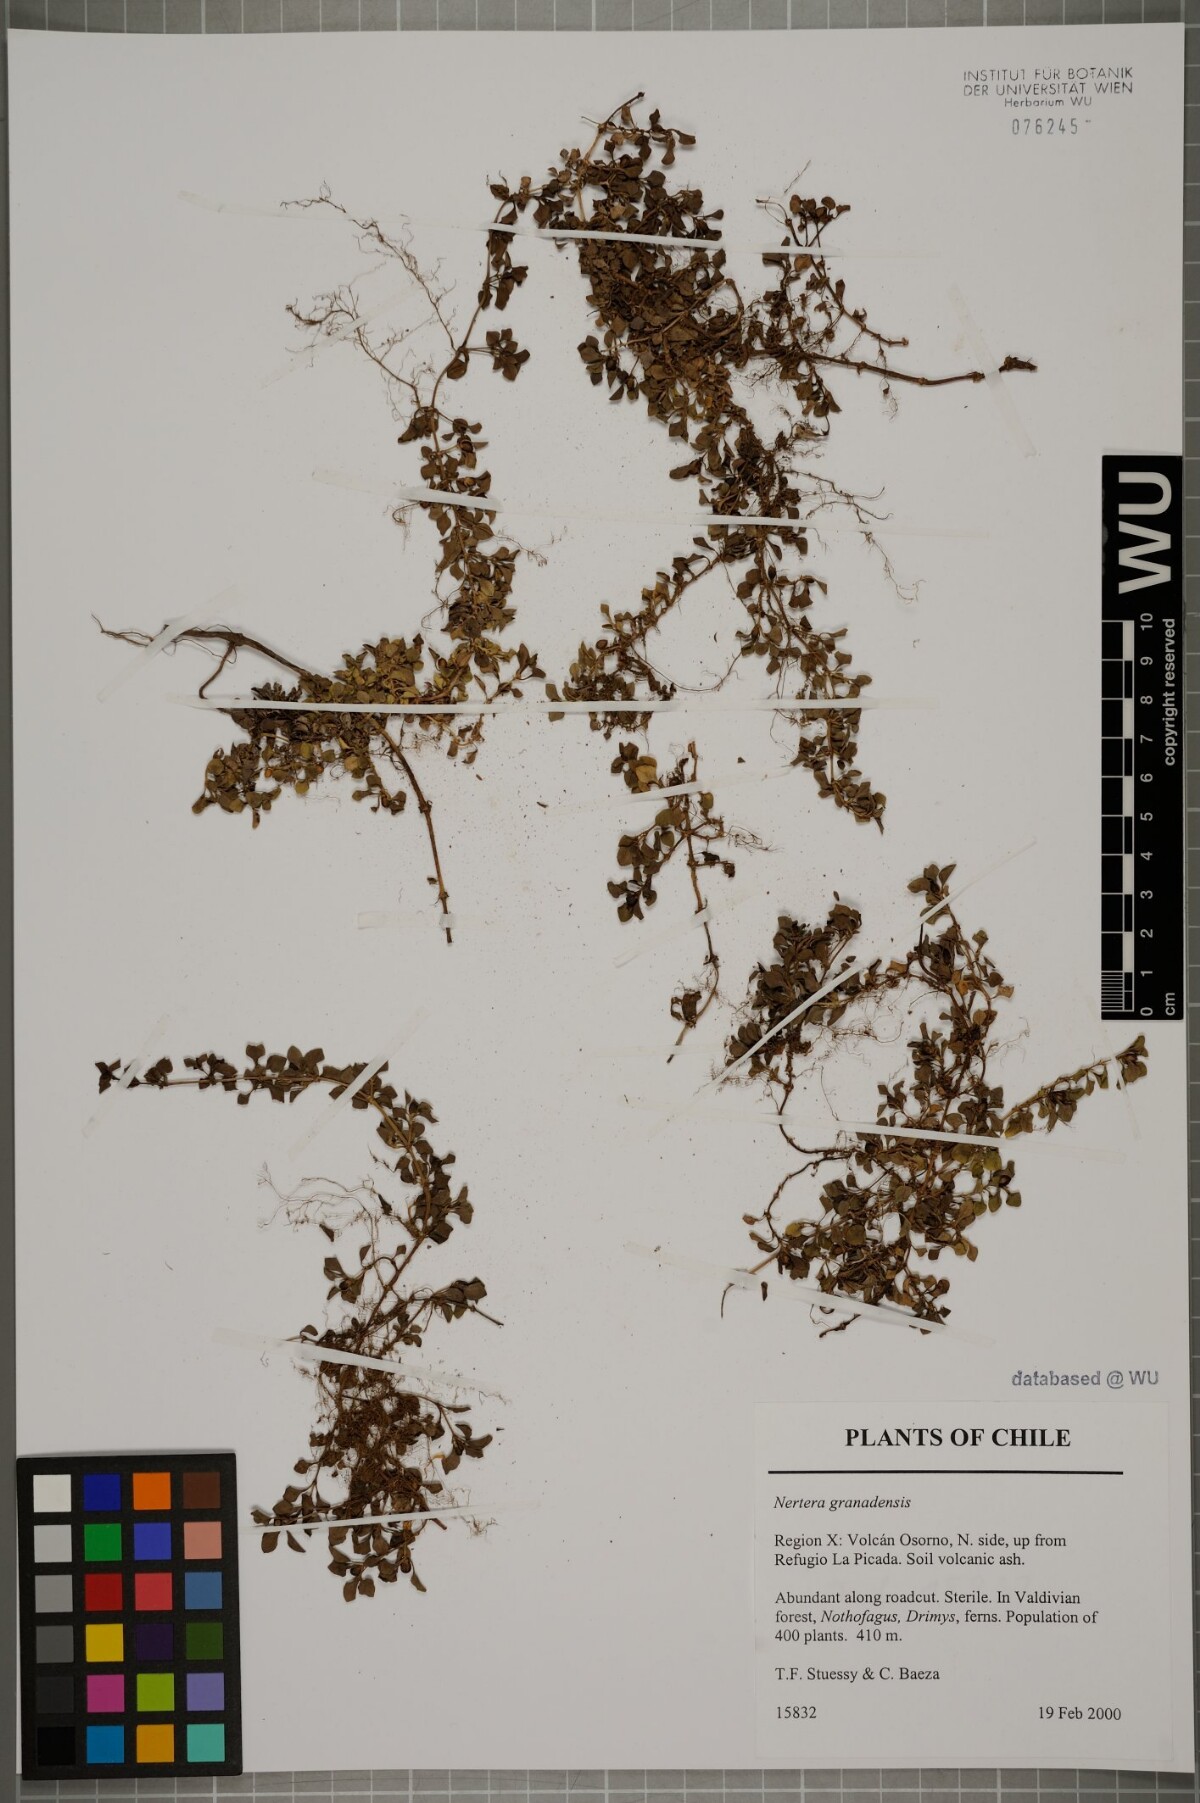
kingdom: Plantae
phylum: Tracheophyta
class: Magnoliopsida
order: Gentianales
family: Rubiaceae
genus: Nertera
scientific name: Nertera granadensis
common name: Beadplant
